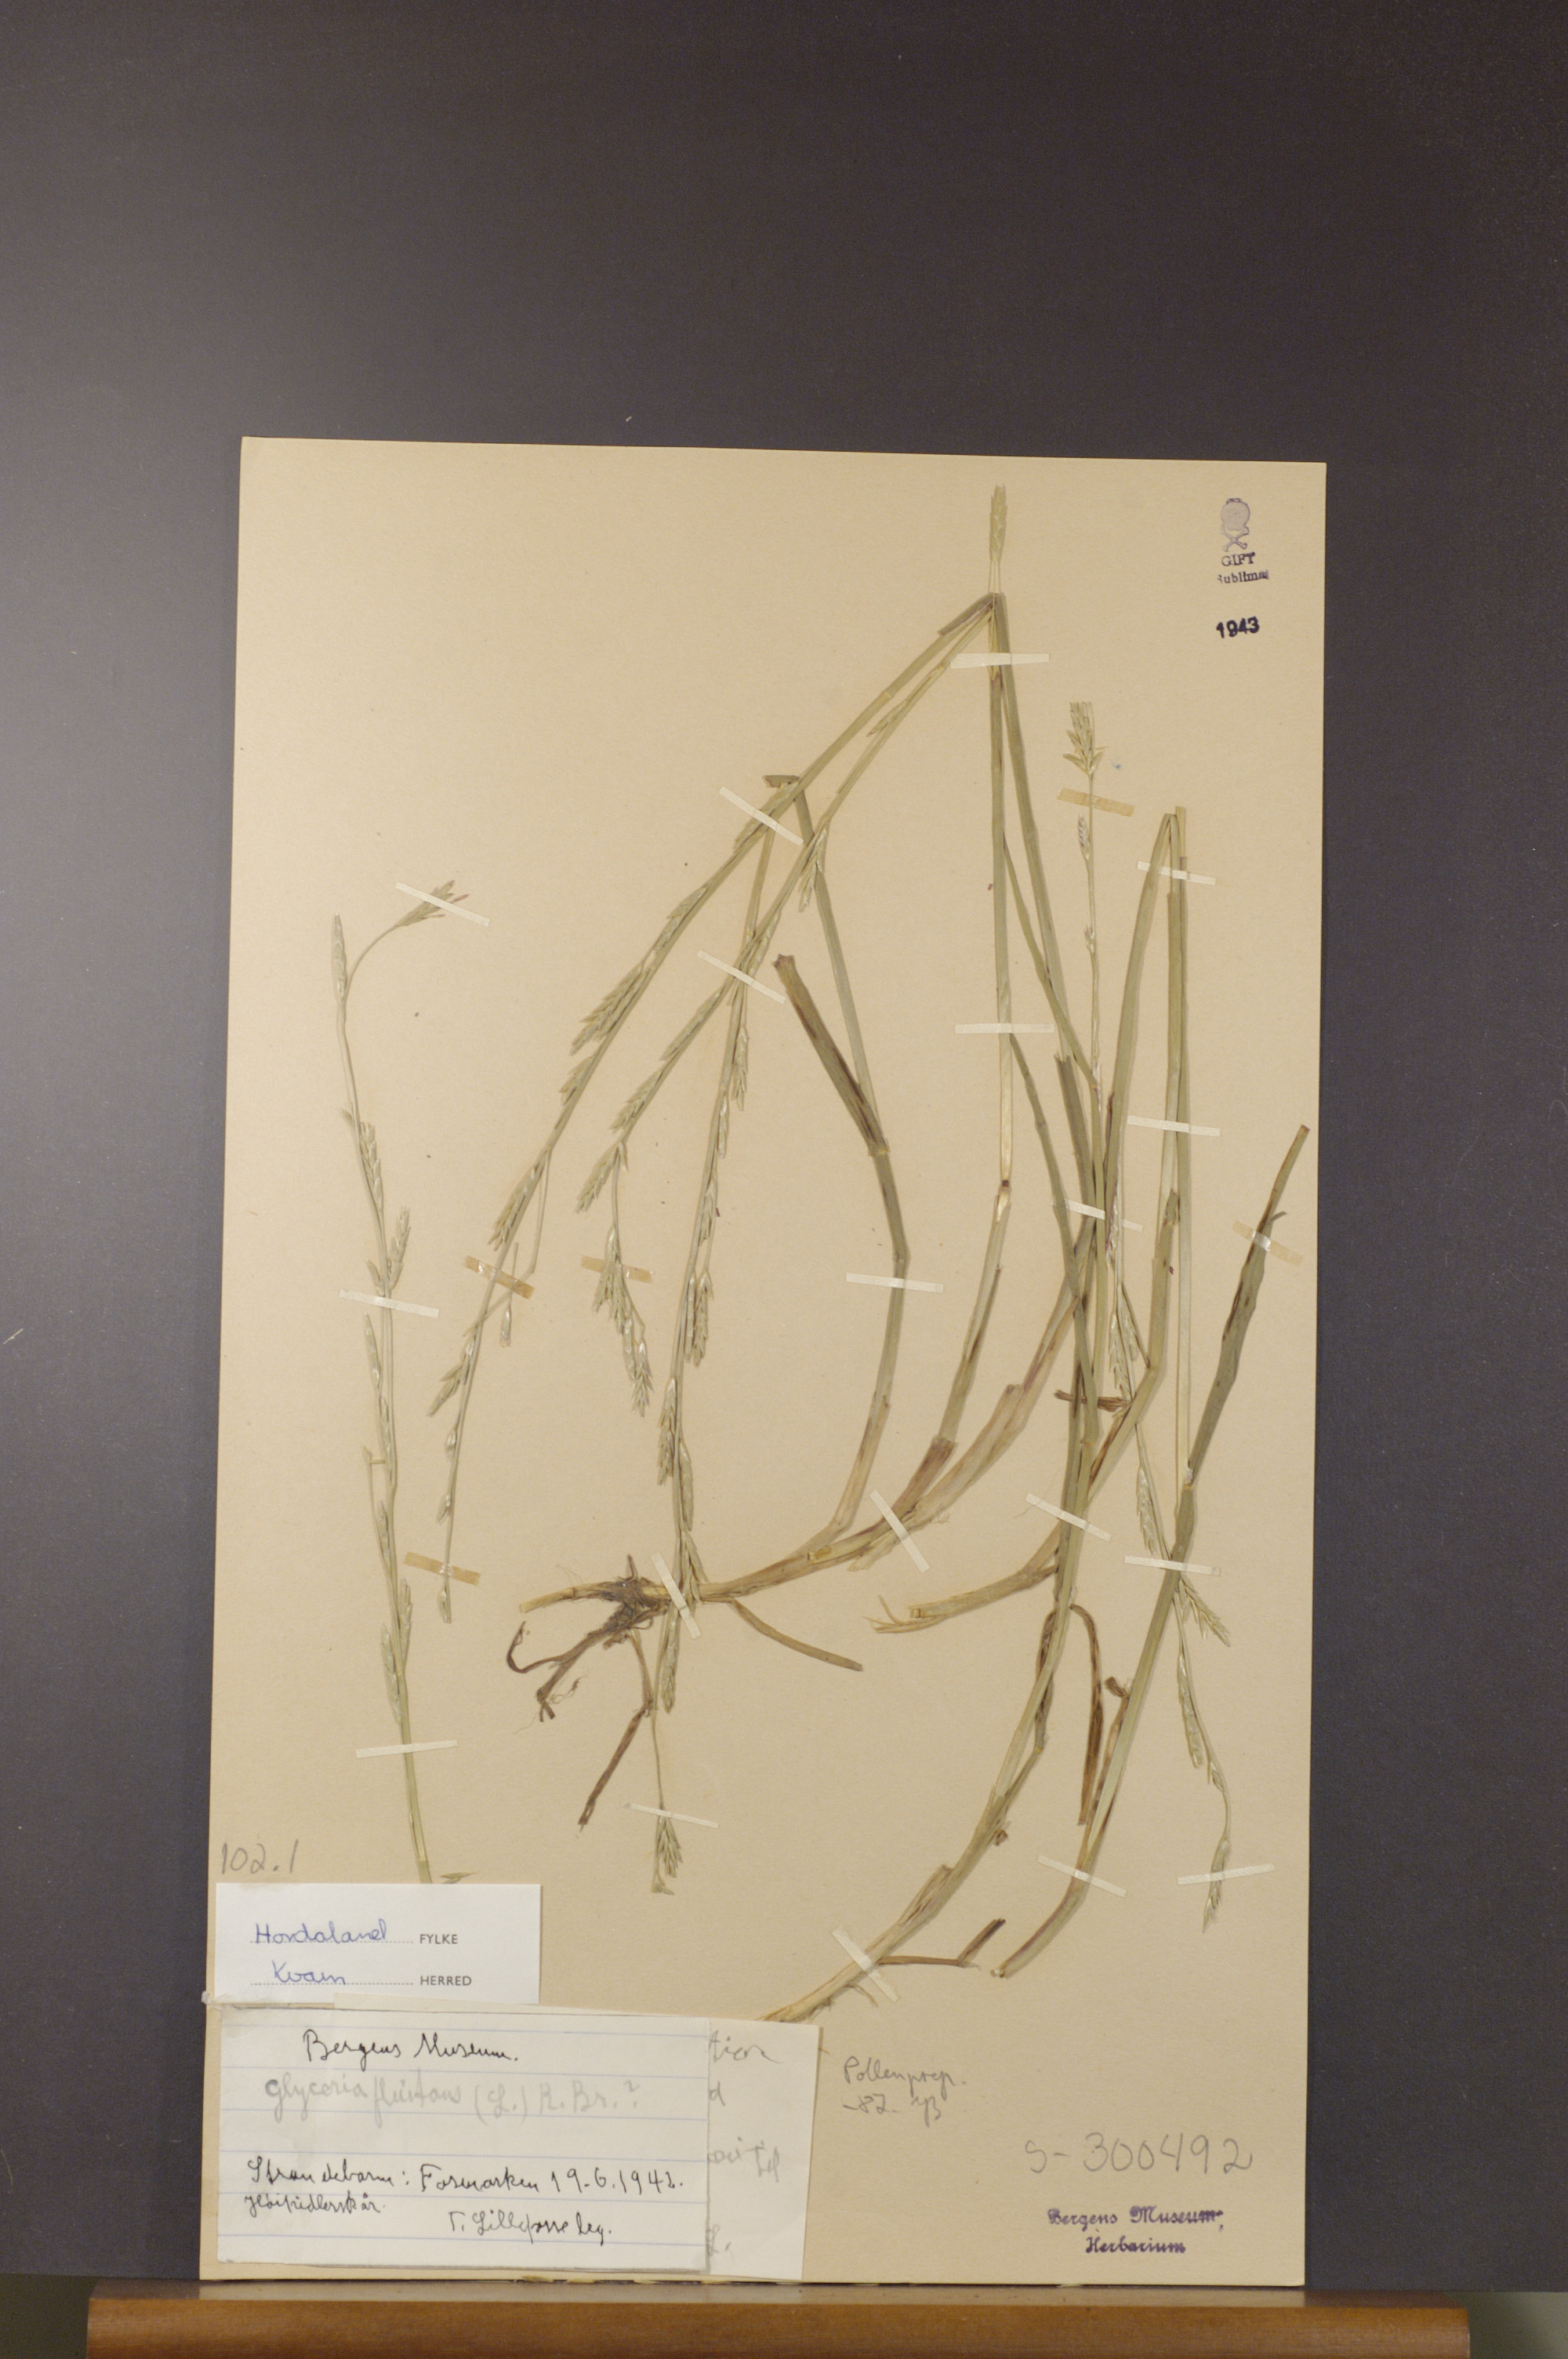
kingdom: Plantae
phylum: Tracheophyta
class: Liliopsida
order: Poales
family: Poaceae
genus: Glyceria
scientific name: Glyceria fluitans
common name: Floating sweet-grass
